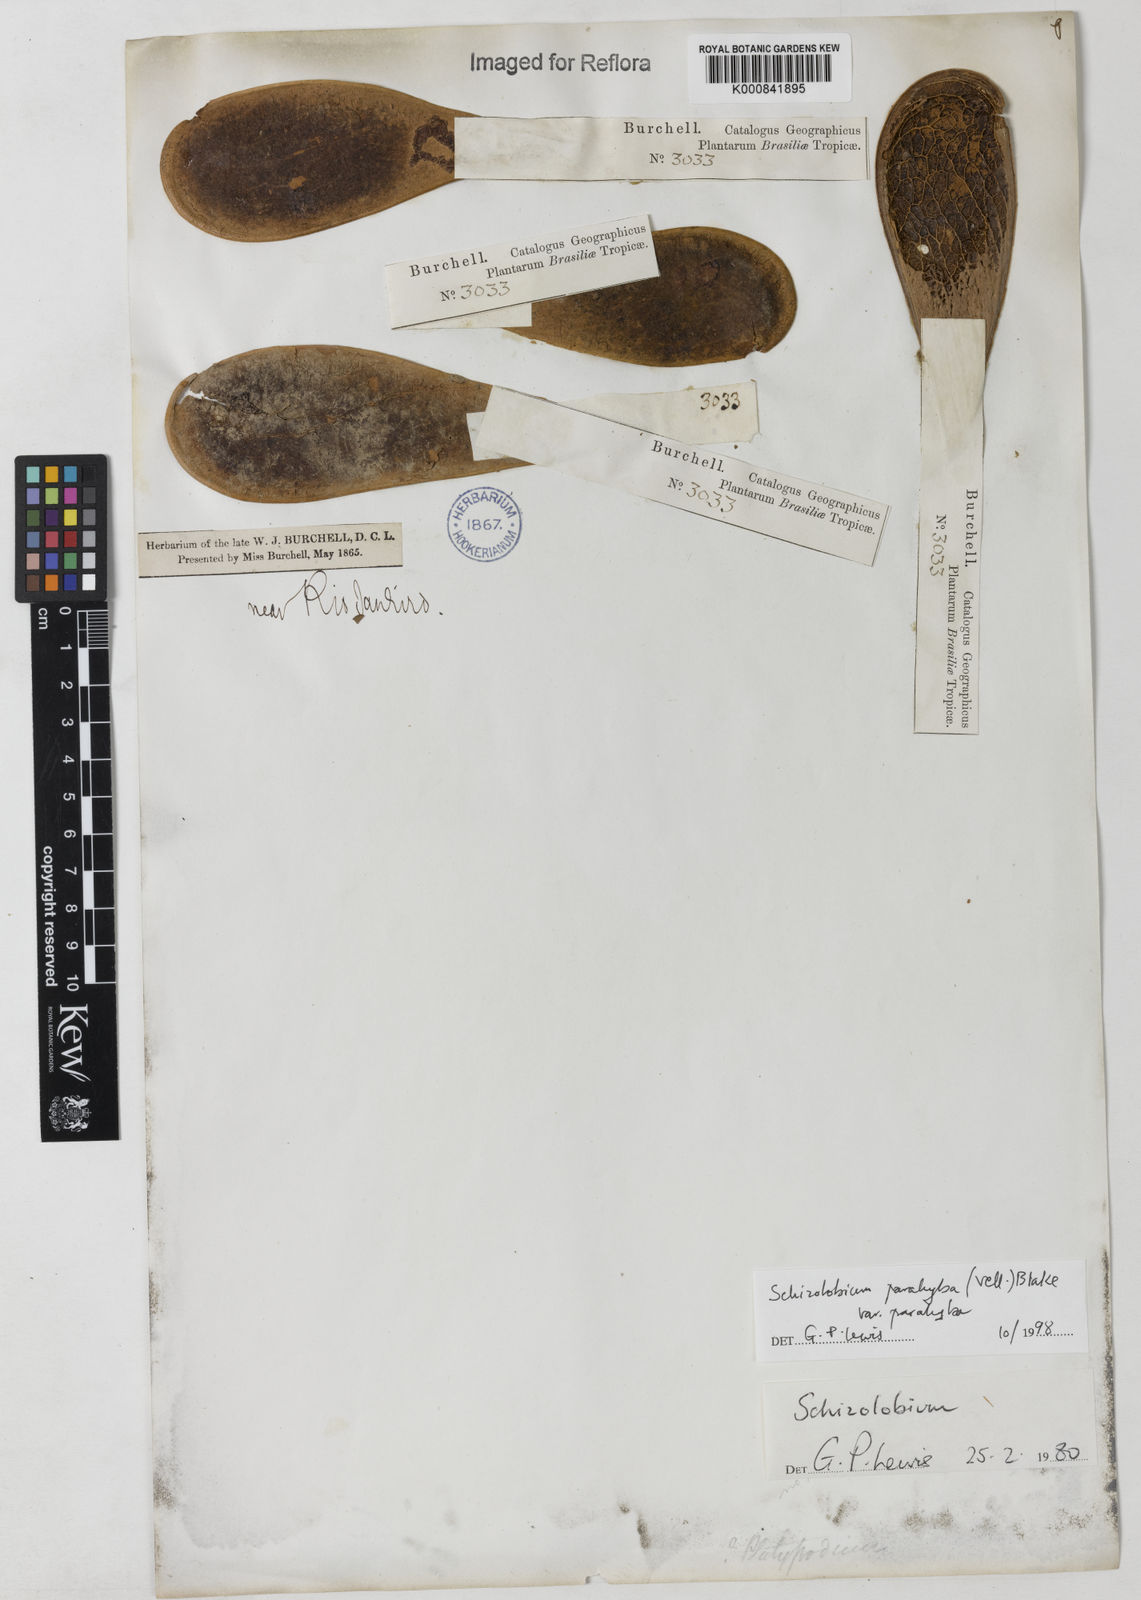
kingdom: Plantae
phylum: Tracheophyta
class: Magnoliopsida
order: Fabales
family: Fabaceae
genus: Schizolobium
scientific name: Schizolobium parahyba
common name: Brazilian firetree
